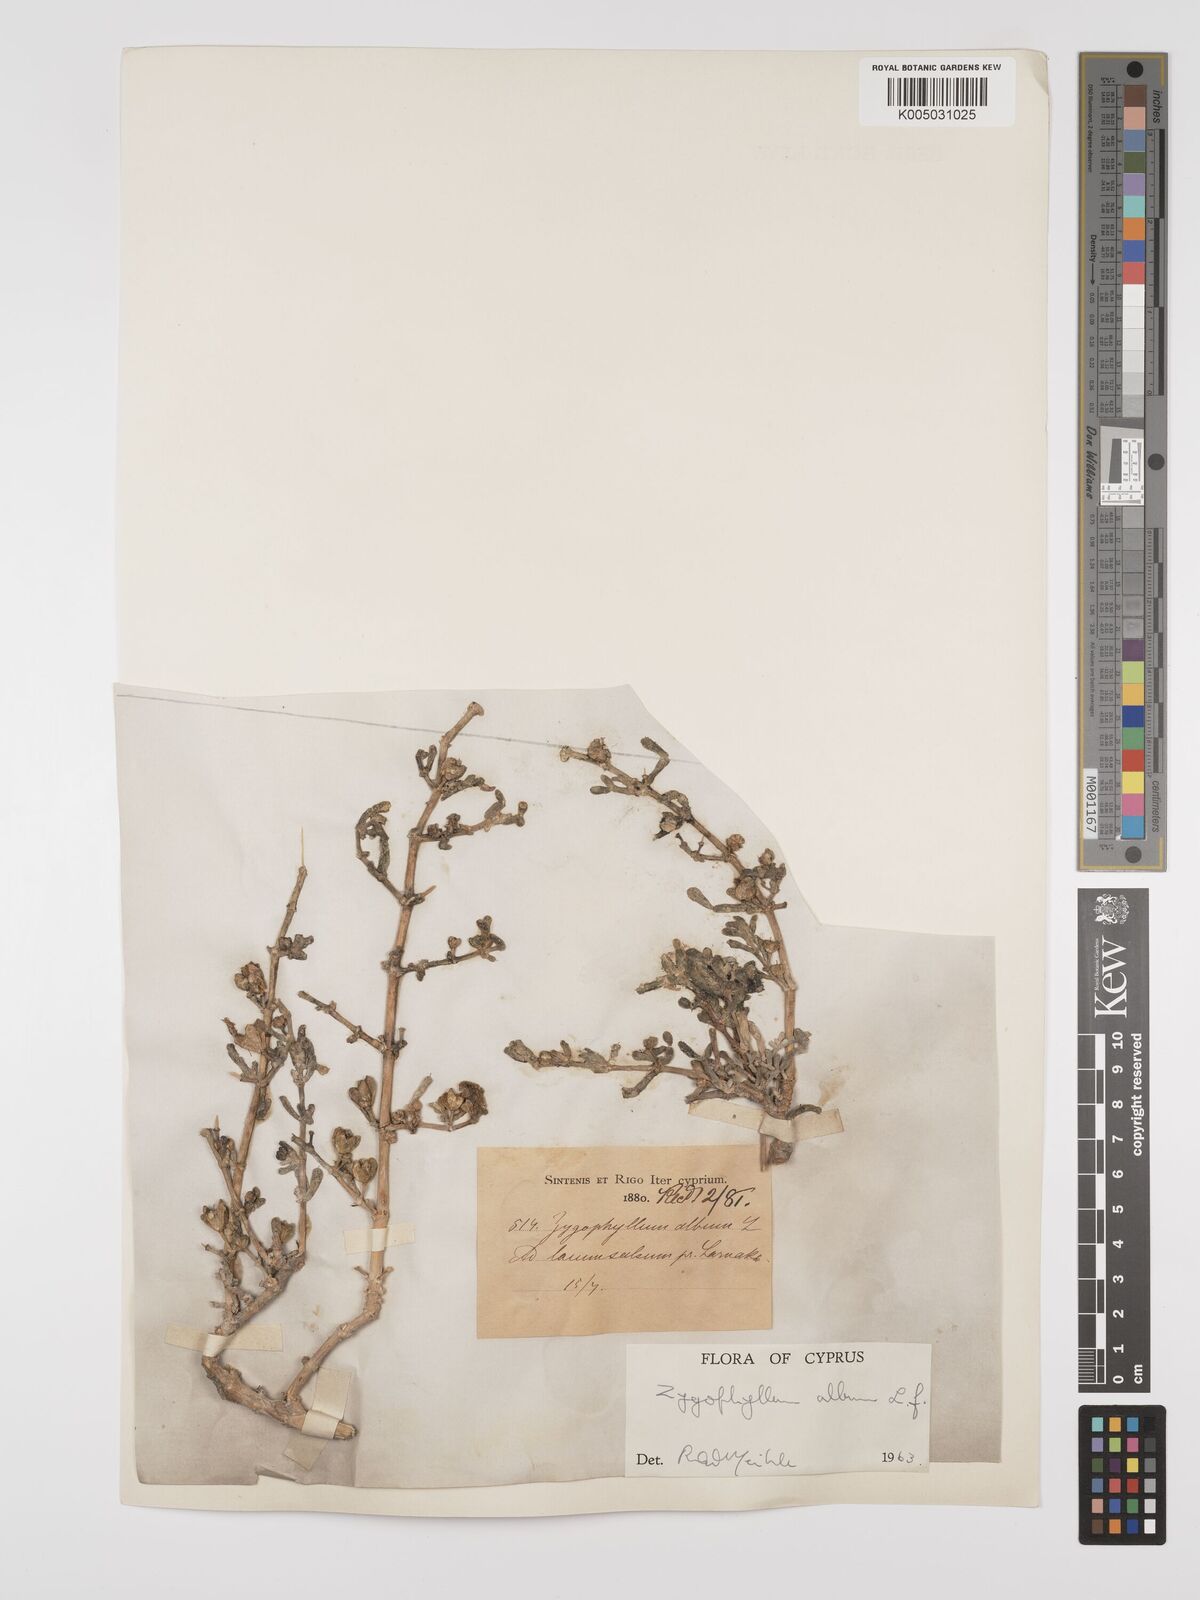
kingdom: Plantae
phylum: Tracheophyta
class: Magnoliopsida
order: Zygophyllales
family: Zygophyllaceae
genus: Zygophyllum
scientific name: Zygophyllum
